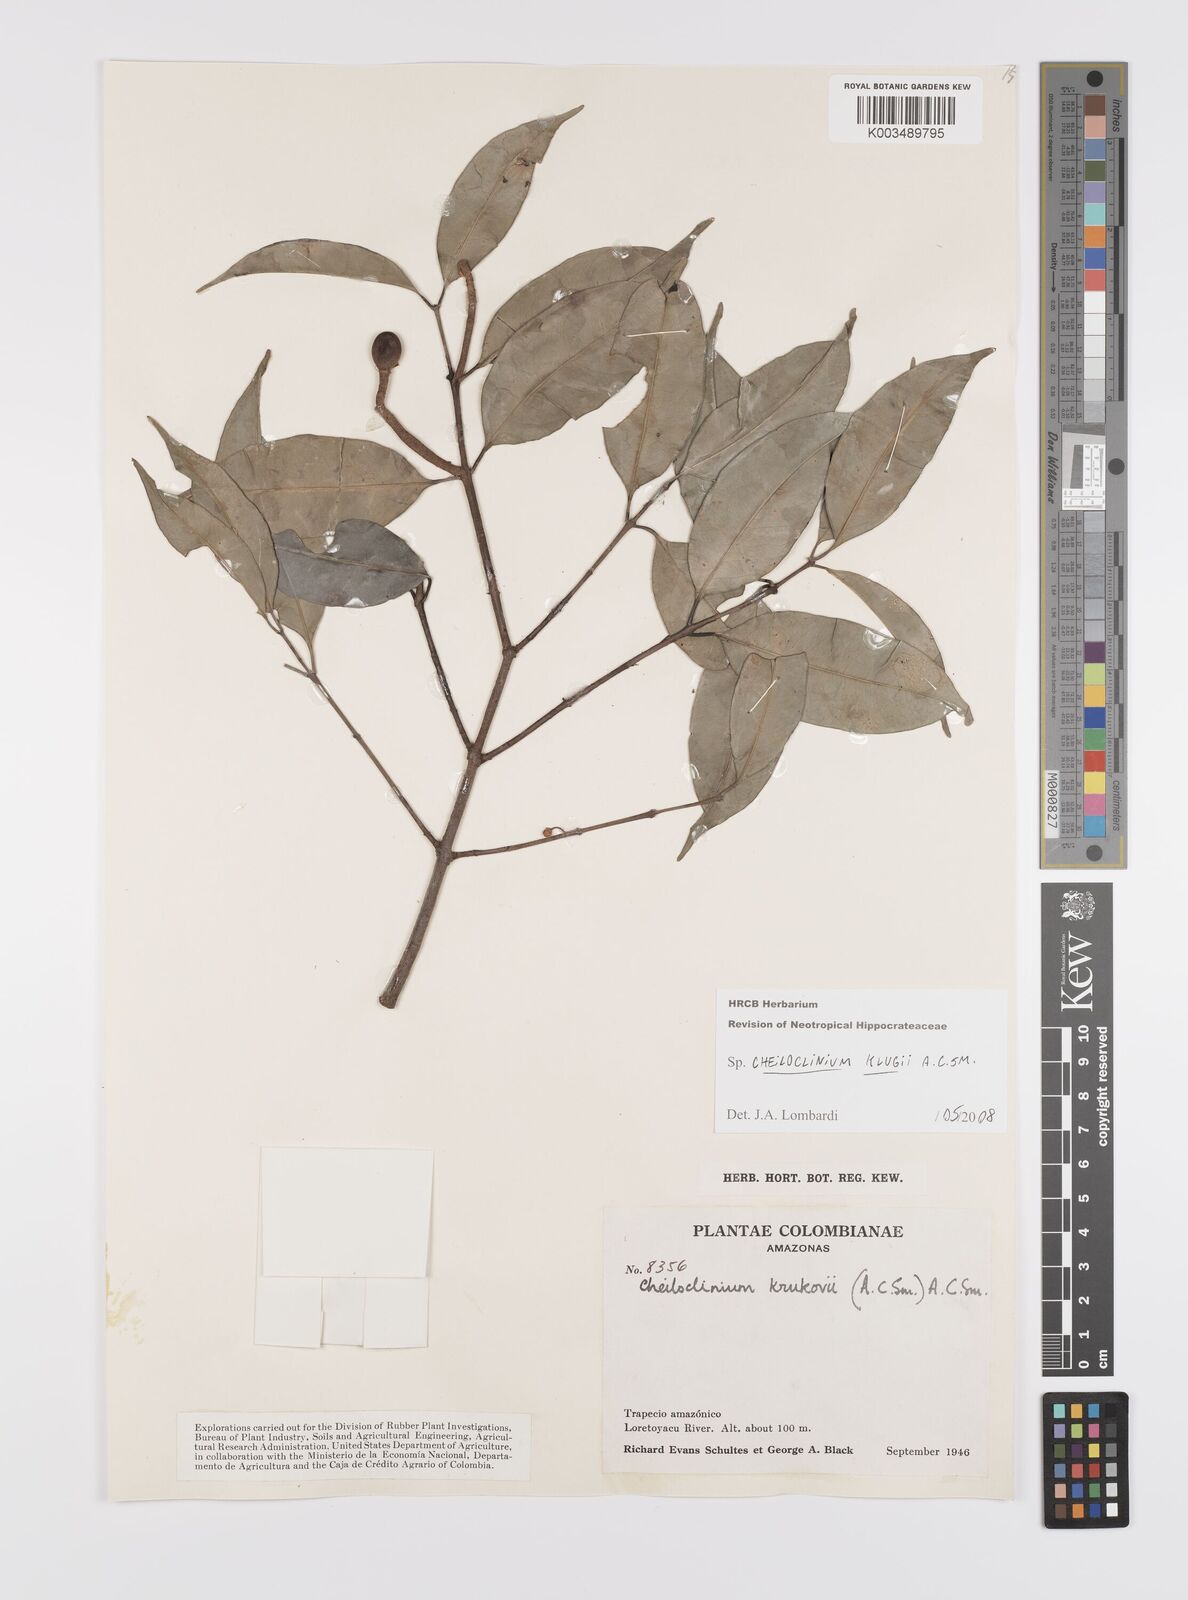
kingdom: Plantae
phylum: Tracheophyta
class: Magnoliopsida
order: Celastrales
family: Celastraceae
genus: Cheiloclinium
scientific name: Cheiloclinium belizense
